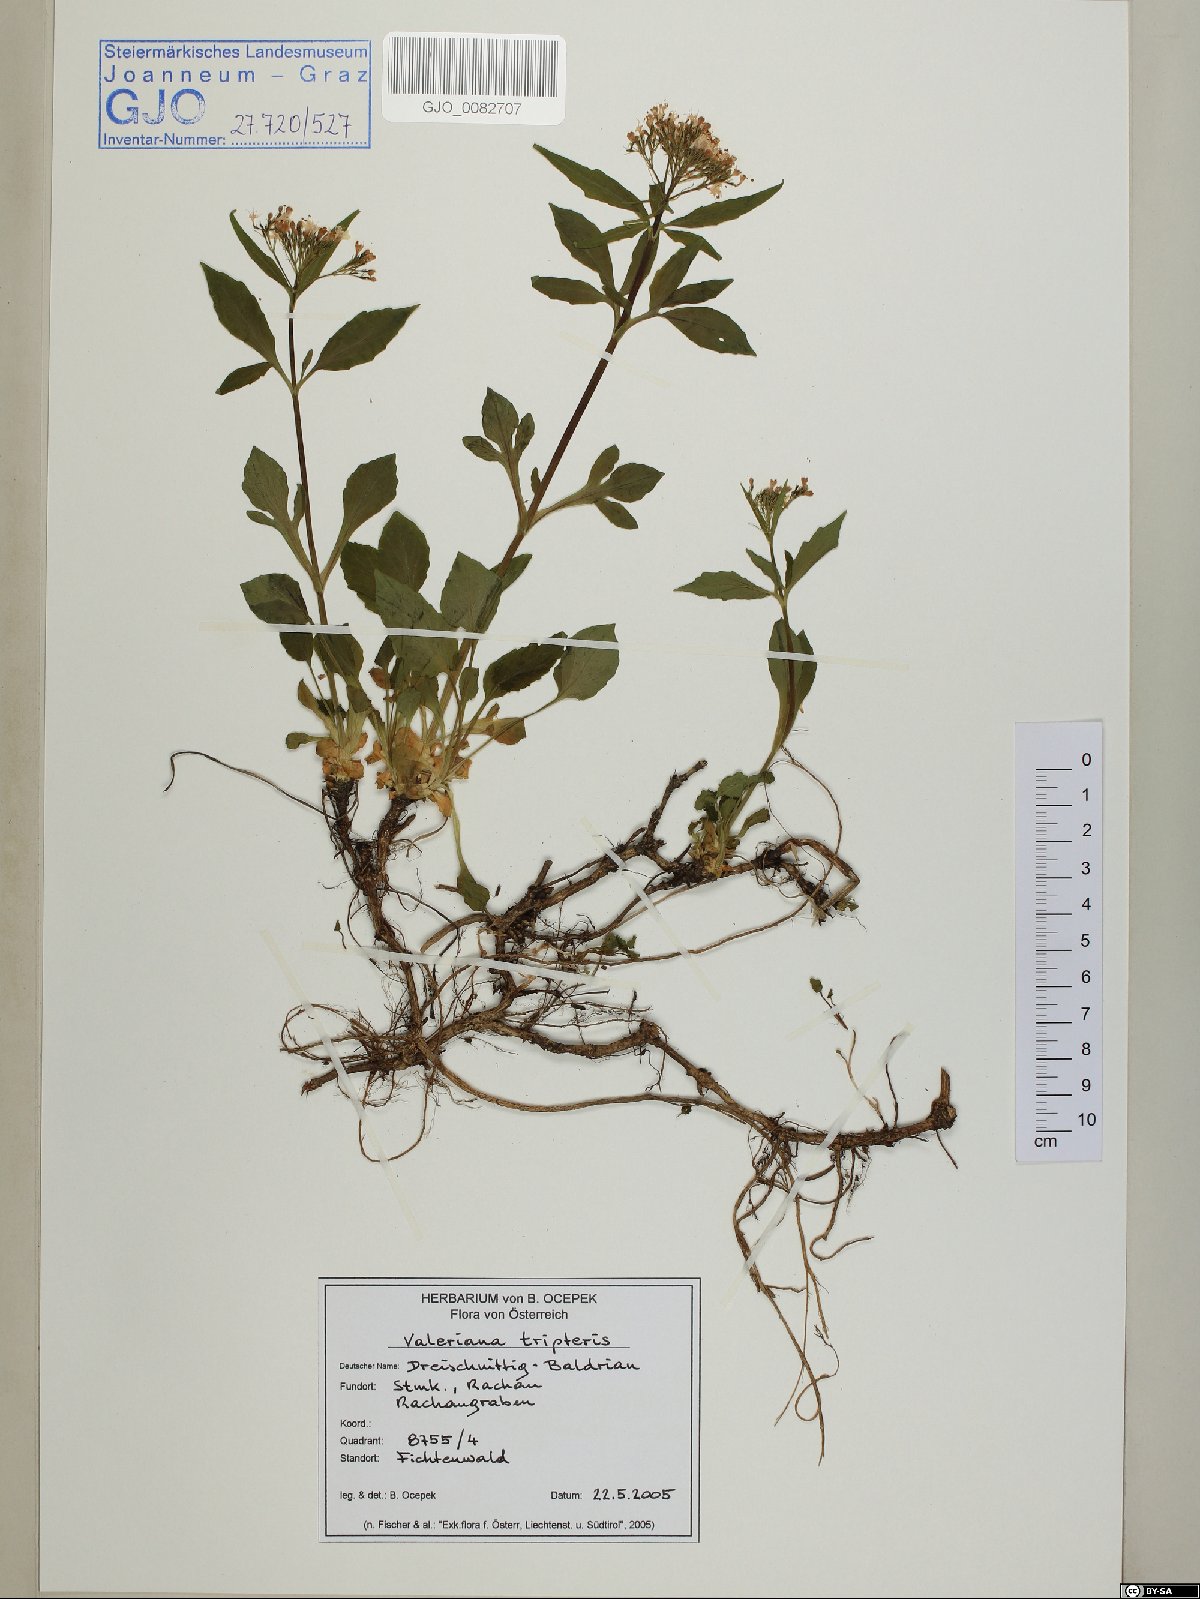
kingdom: Plantae
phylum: Tracheophyta
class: Magnoliopsida
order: Dipsacales
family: Caprifoliaceae
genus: Valeriana
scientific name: Valeriana tripteris
